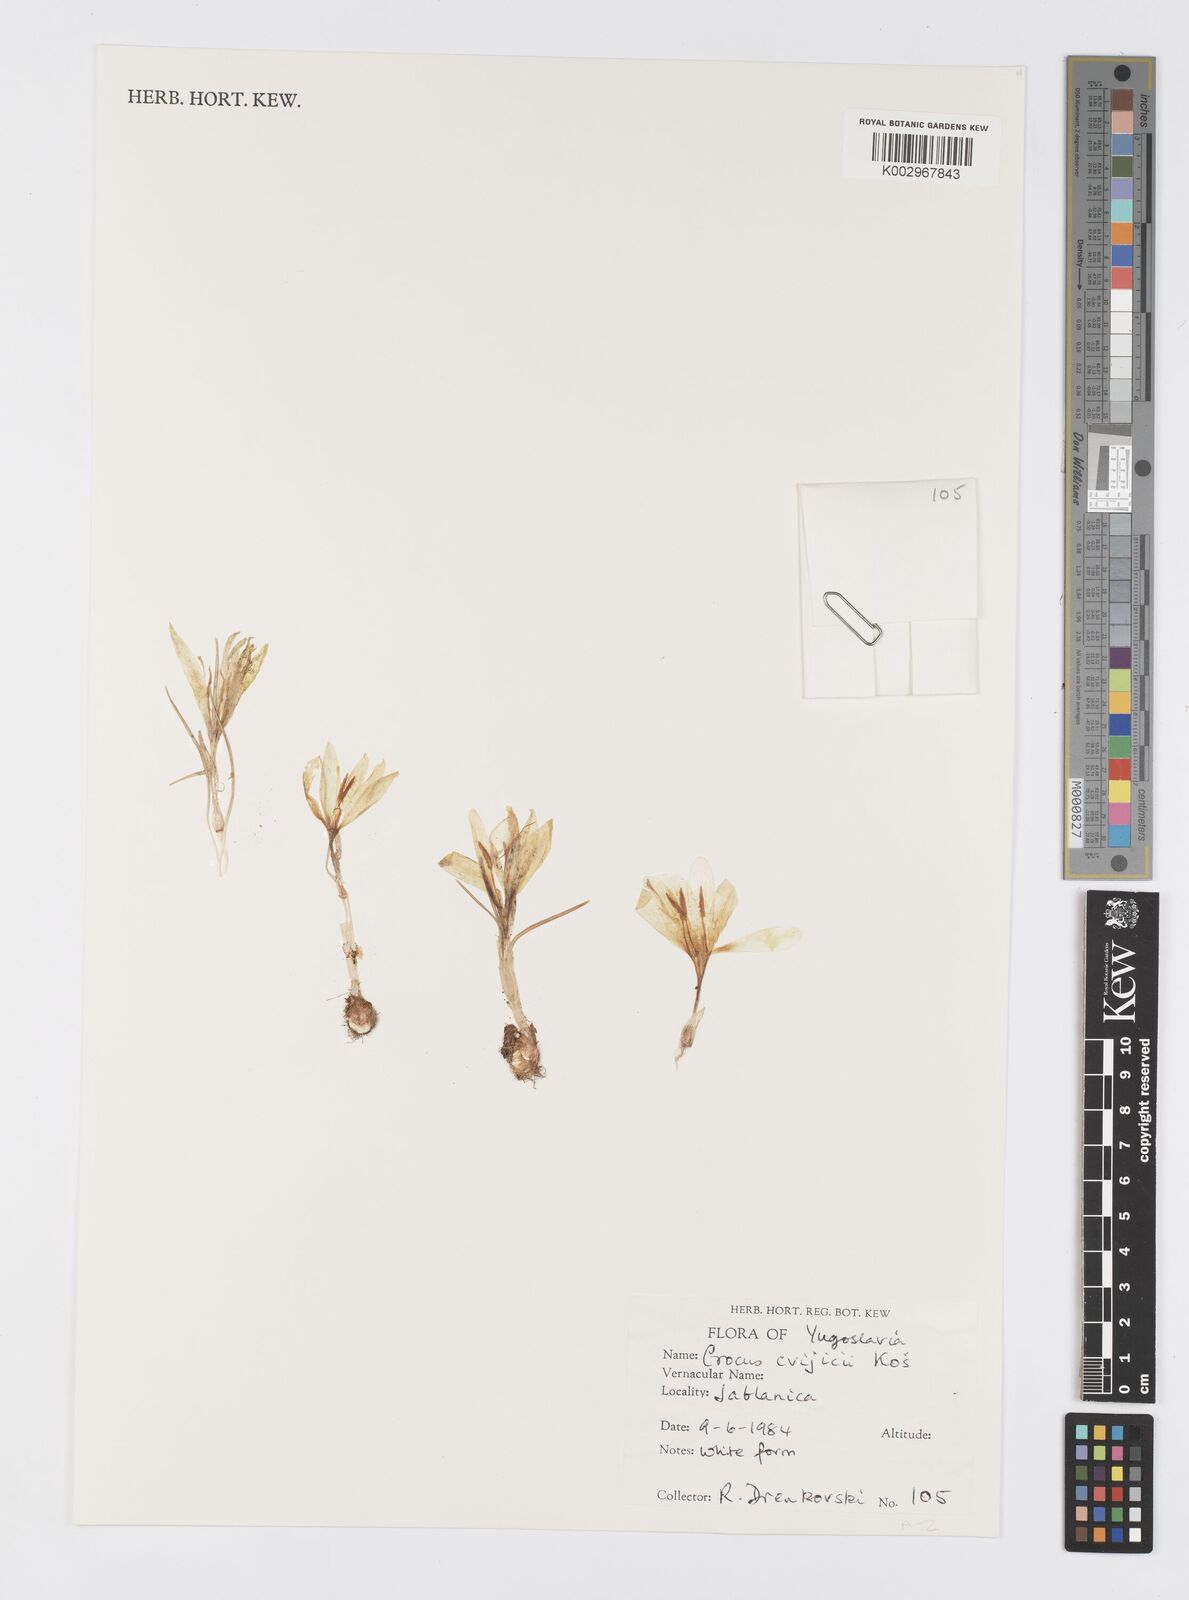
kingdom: Plantae
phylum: Tracheophyta
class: Liliopsida
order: Asparagales
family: Iridaceae
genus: Crocus
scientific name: Crocus cvijicii
